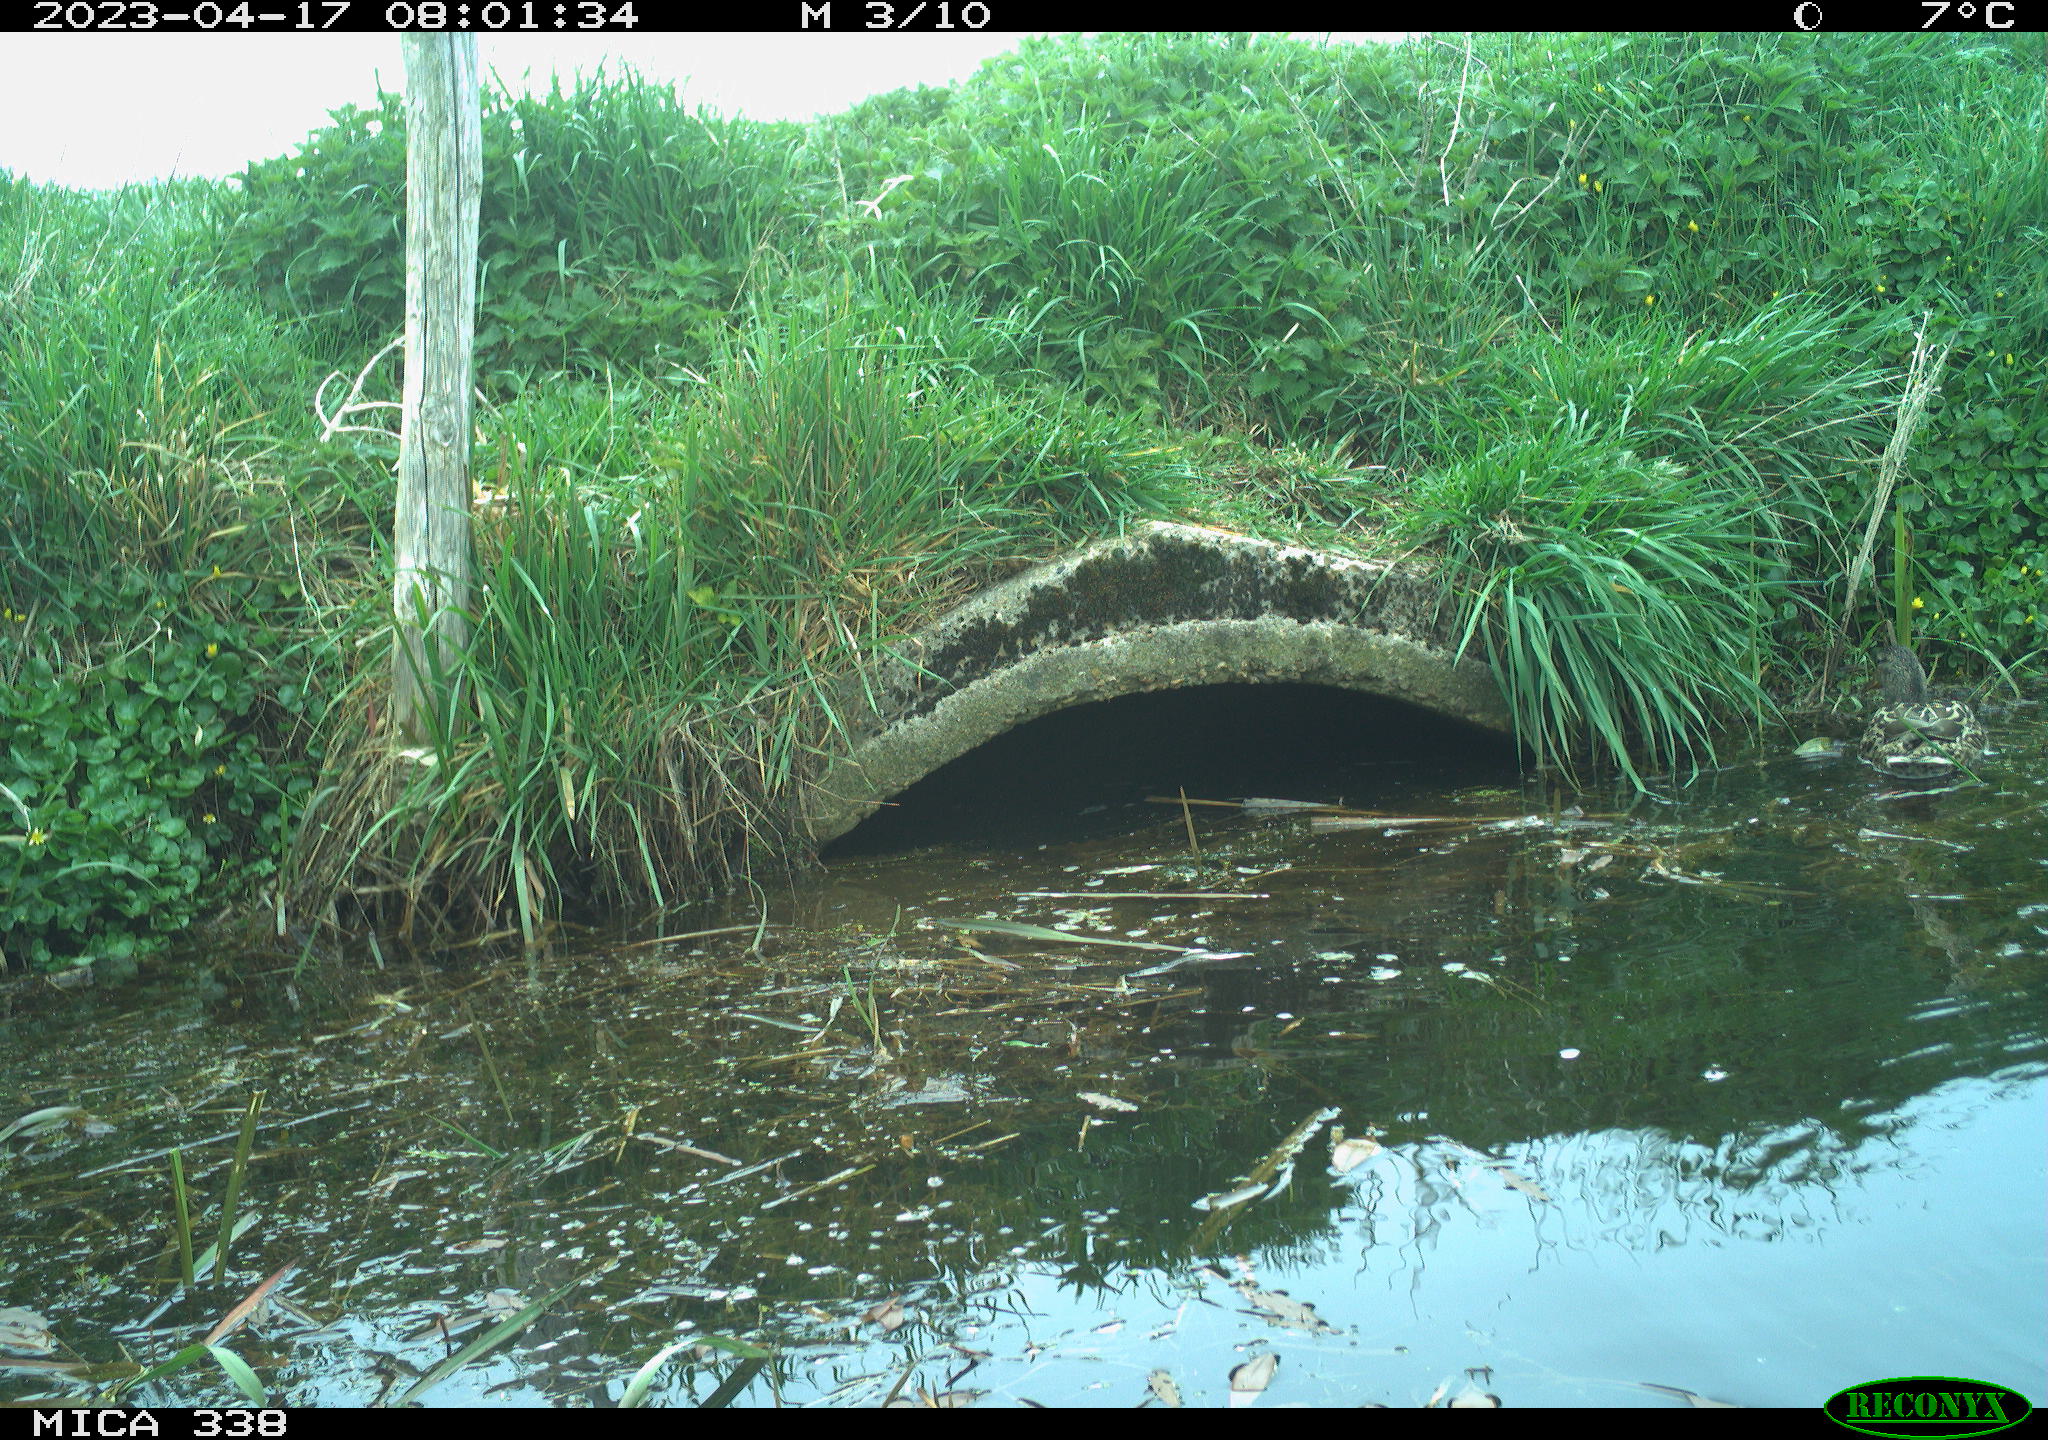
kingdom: Animalia
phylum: Chordata
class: Aves
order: Anseriformes
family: Anatidae
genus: Anas
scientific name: Anas platyrhynchos
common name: Mallard
